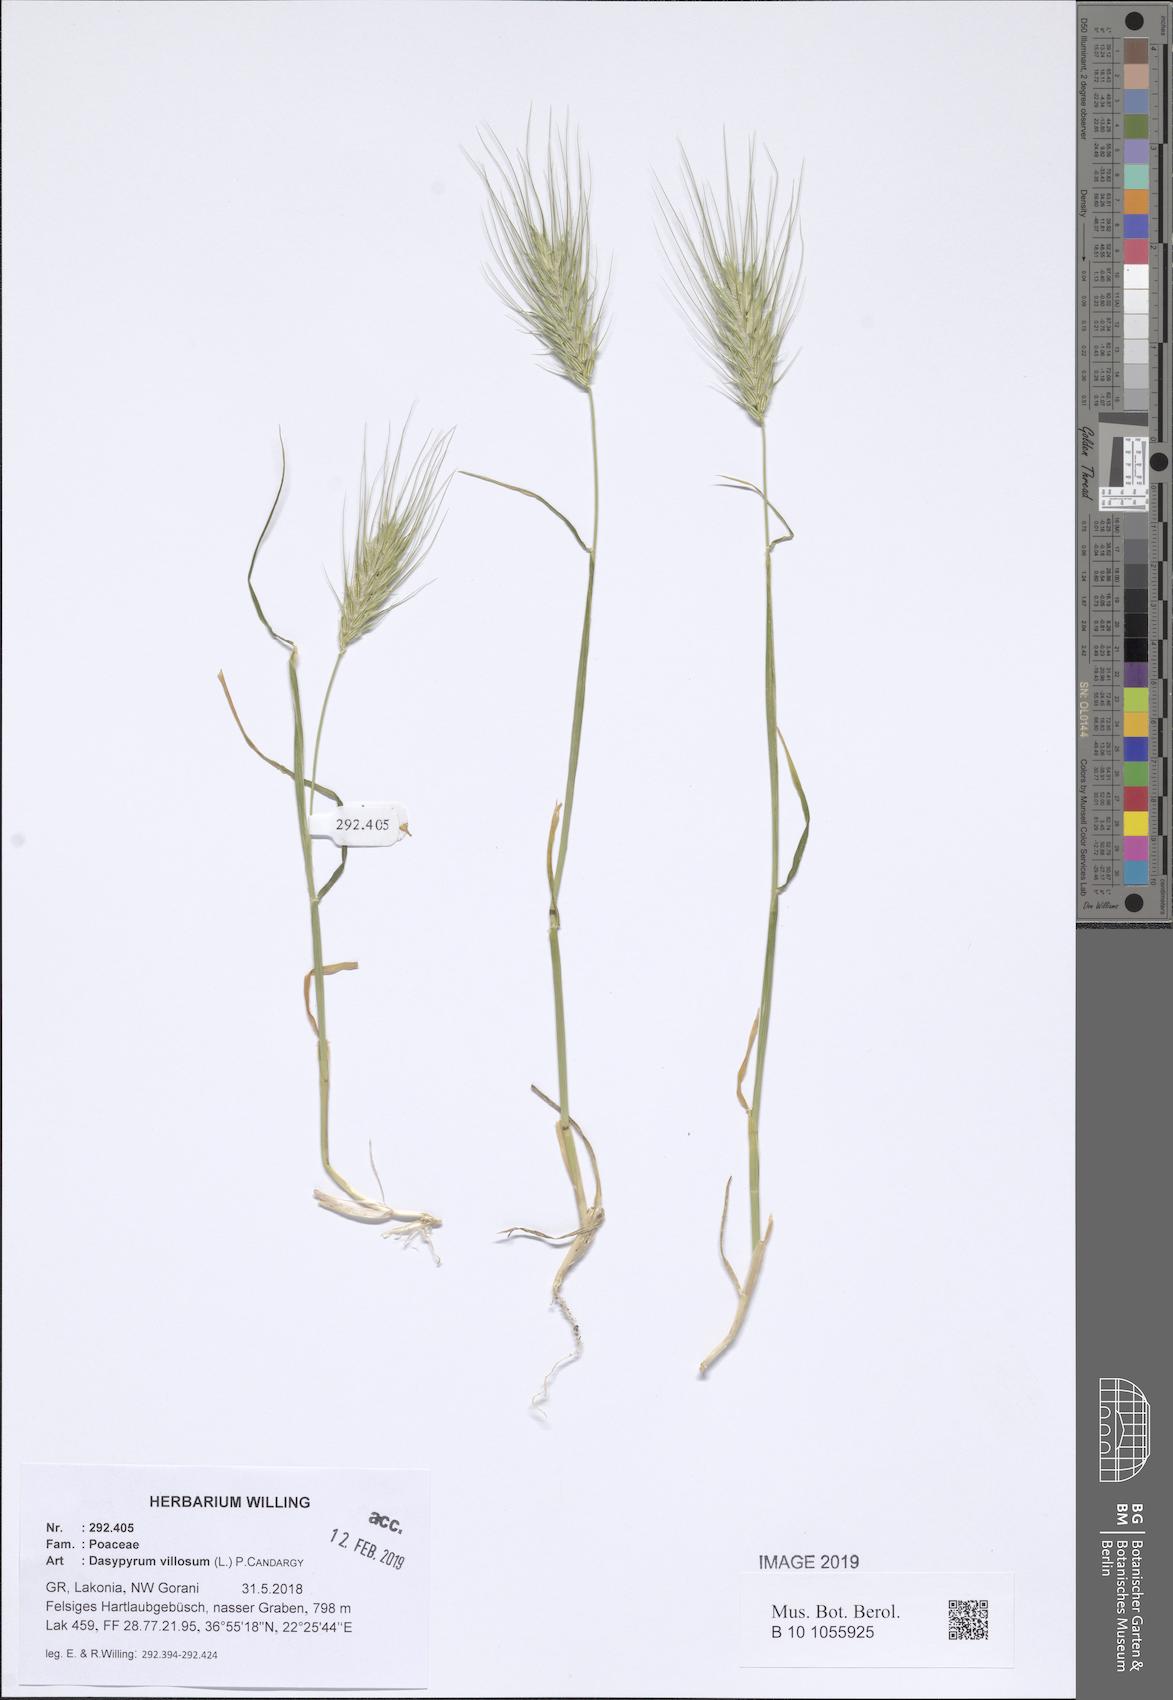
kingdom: Plantae
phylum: Tracheophyta
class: Liliopsida
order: Poales
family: Poaceae
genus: Dasypyrum
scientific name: Dasypyrum villosum
